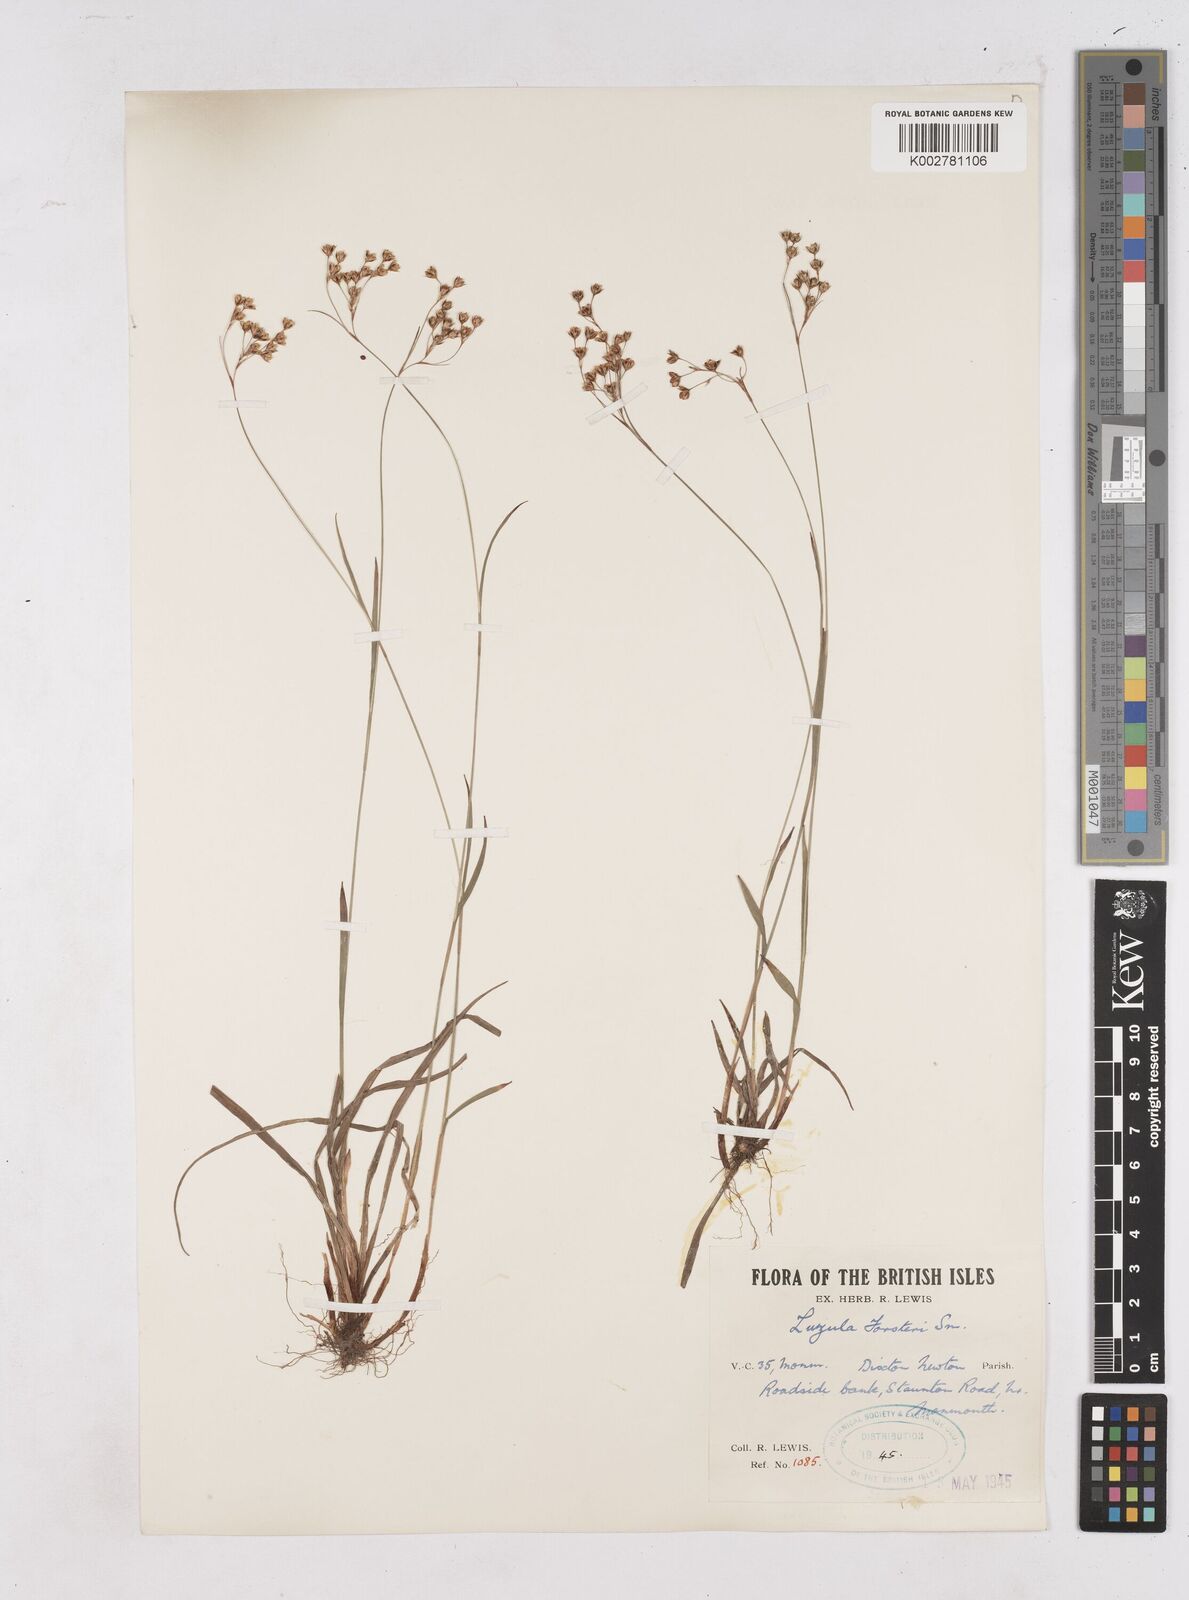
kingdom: Plantae
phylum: Tracheophyta
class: Liliopsida
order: Poales
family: Juncaceae
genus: Luzula
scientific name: Luzula forsteri
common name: Southern wood-rush
